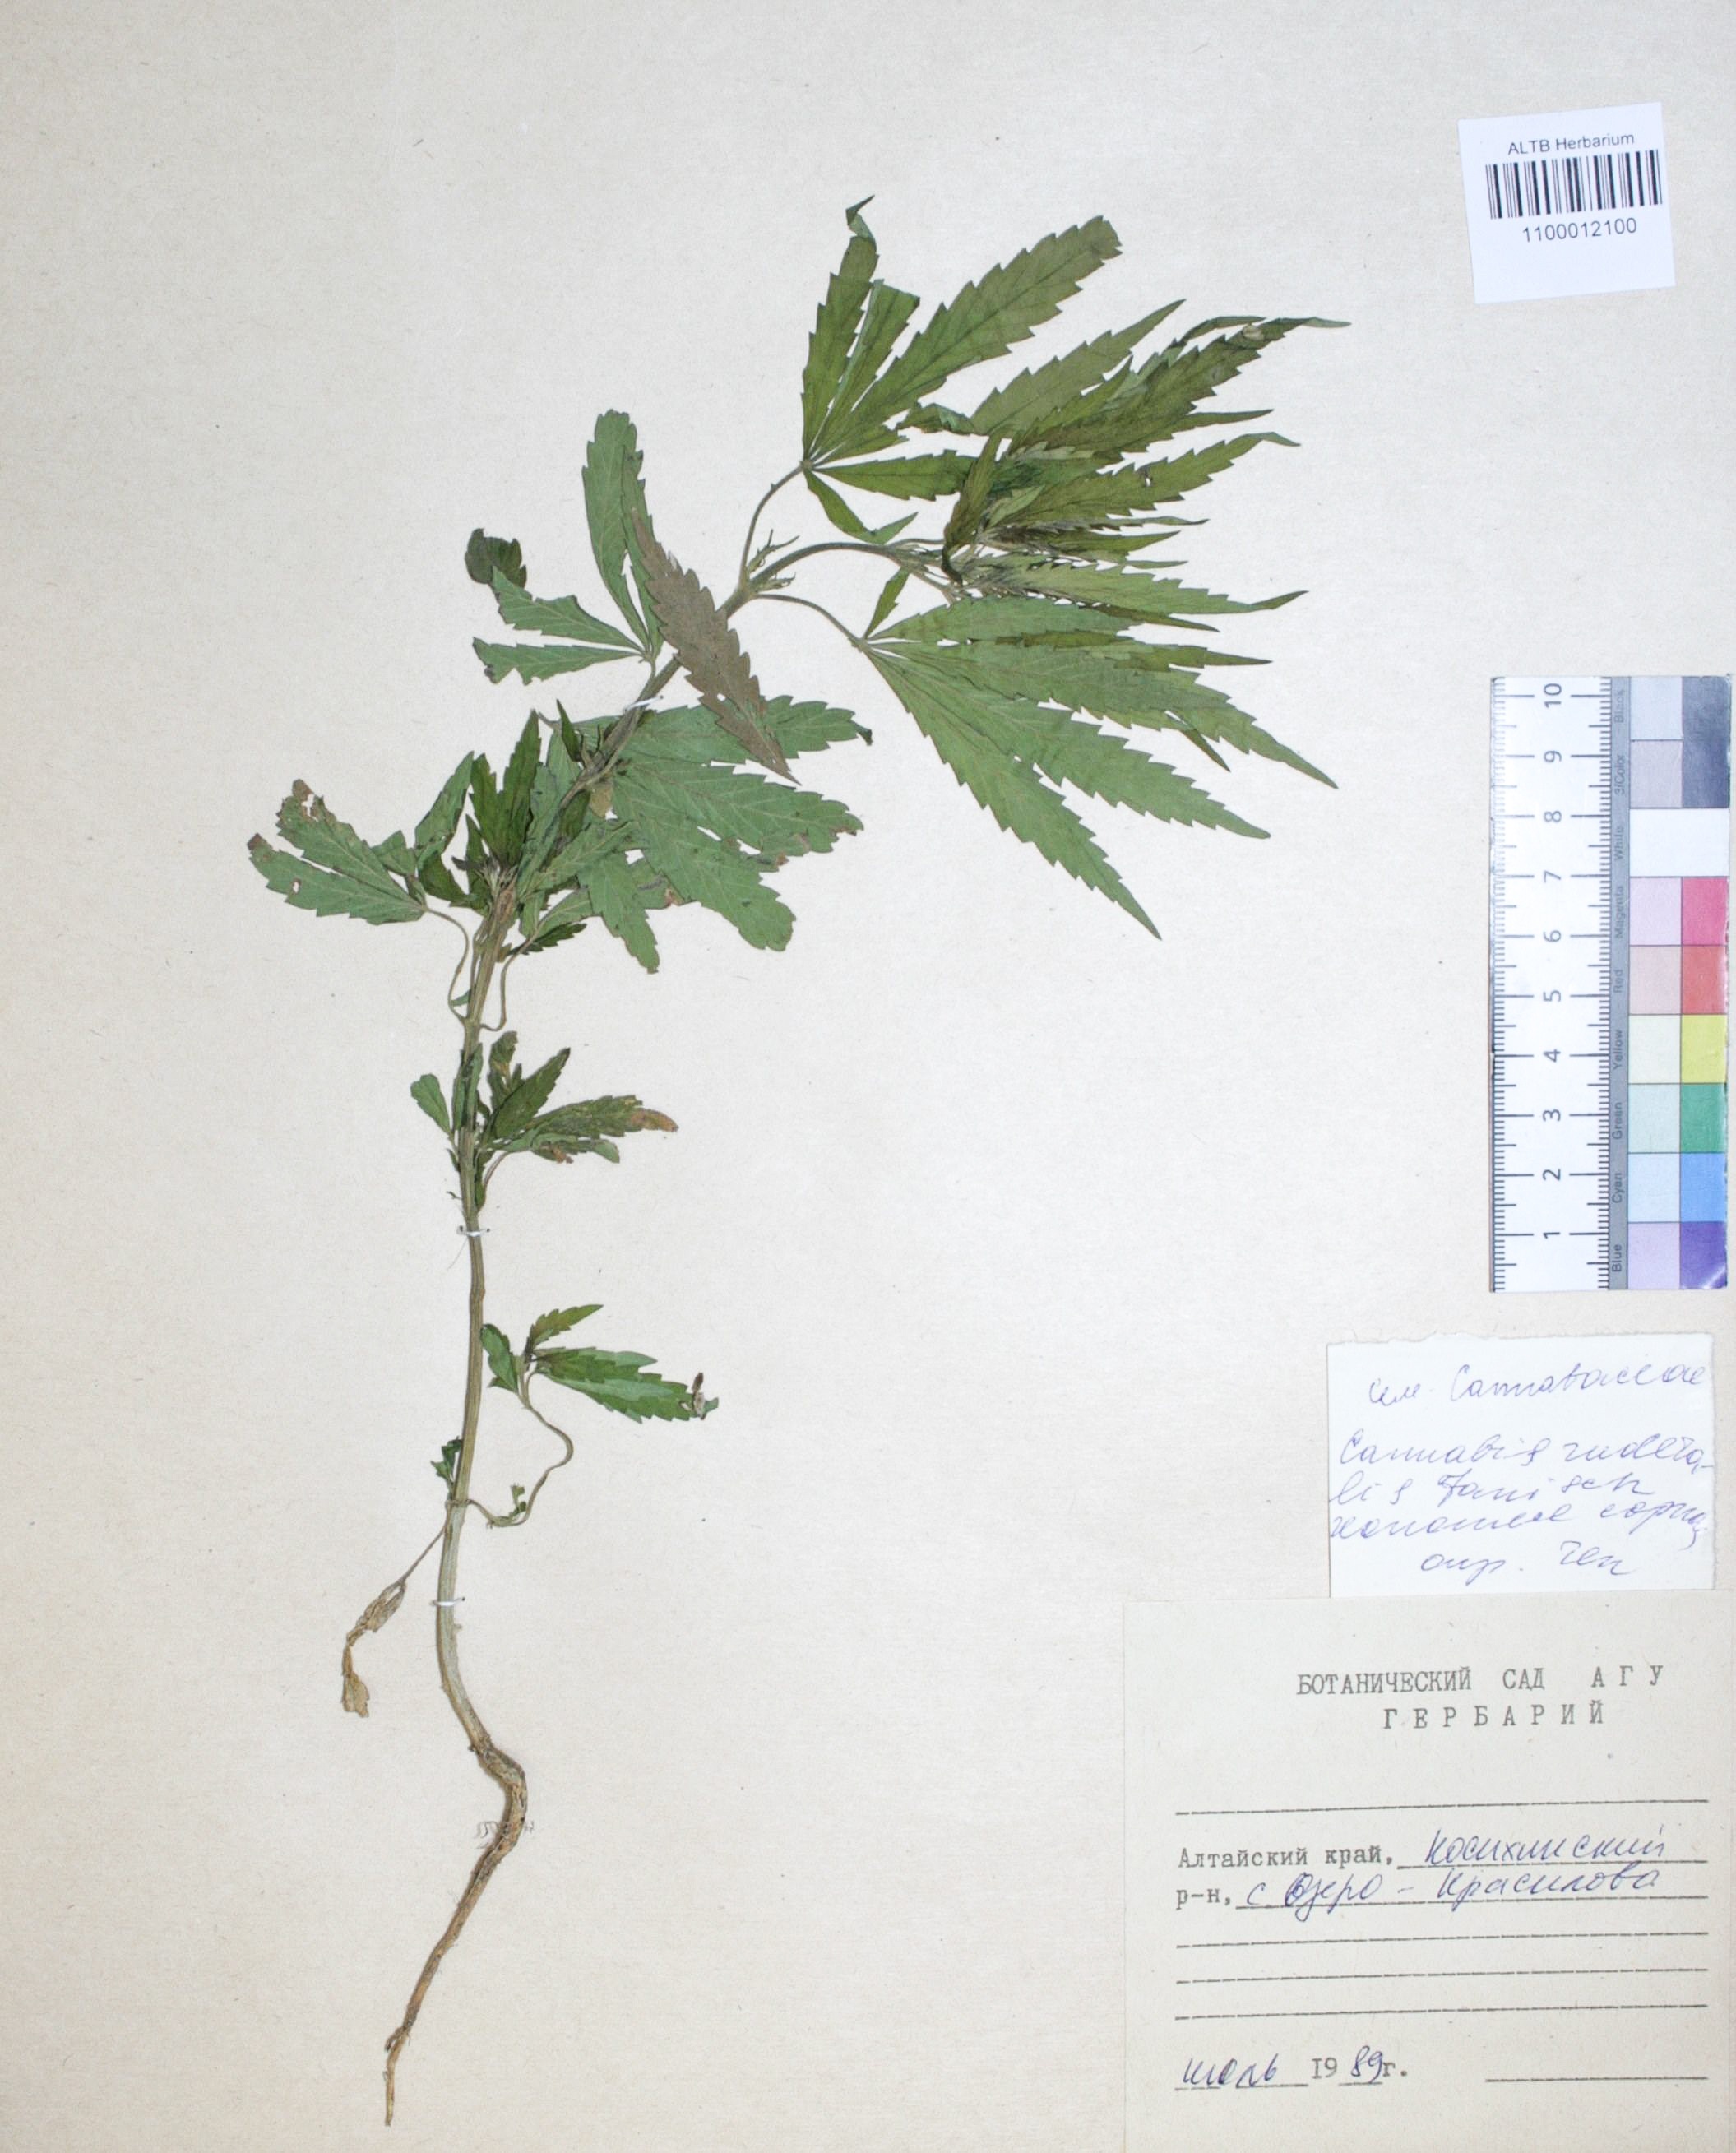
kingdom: Plantae
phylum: Tracheophyta
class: Magnoliopsida
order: Rosales
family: Cannabaceae
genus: Cannabis
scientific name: Cannabis sativa
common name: Hemp
